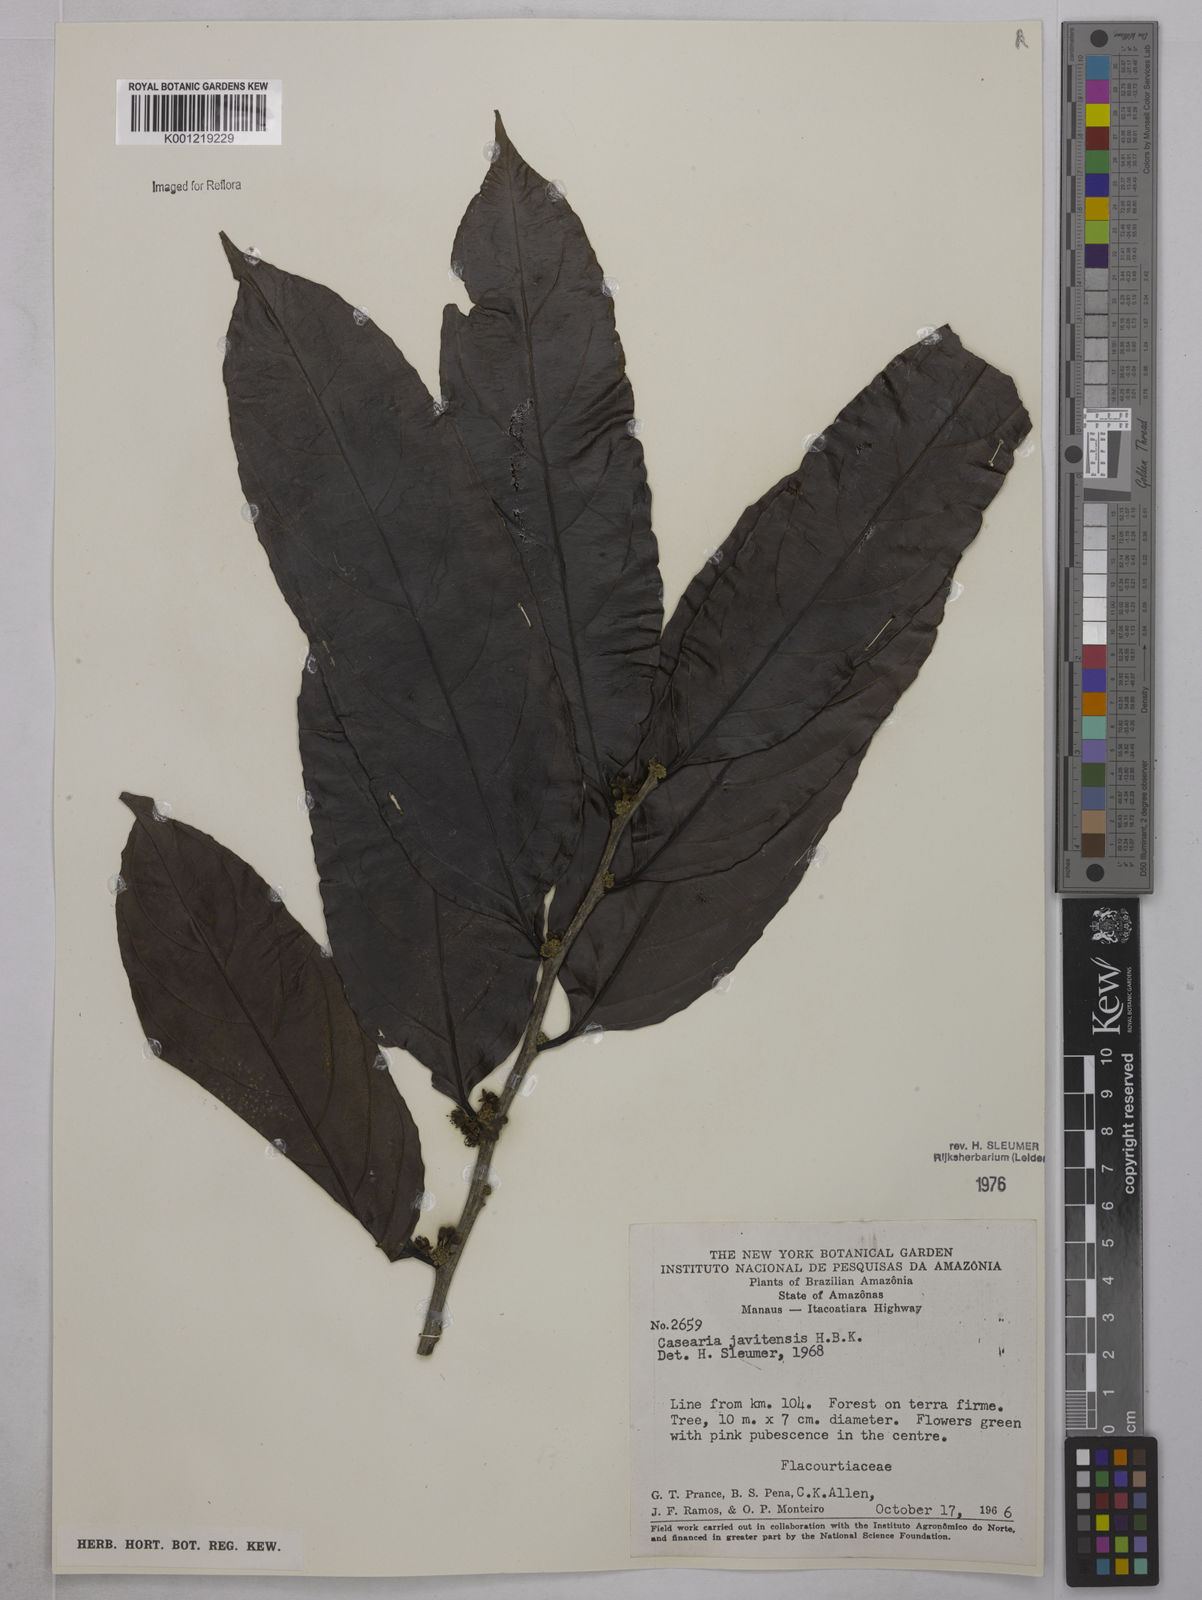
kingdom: Plantae
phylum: Tracheophyta
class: Magnoliopsida
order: Malpighiales
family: Salicaceae
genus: Piparea
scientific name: Piparea multiflora
